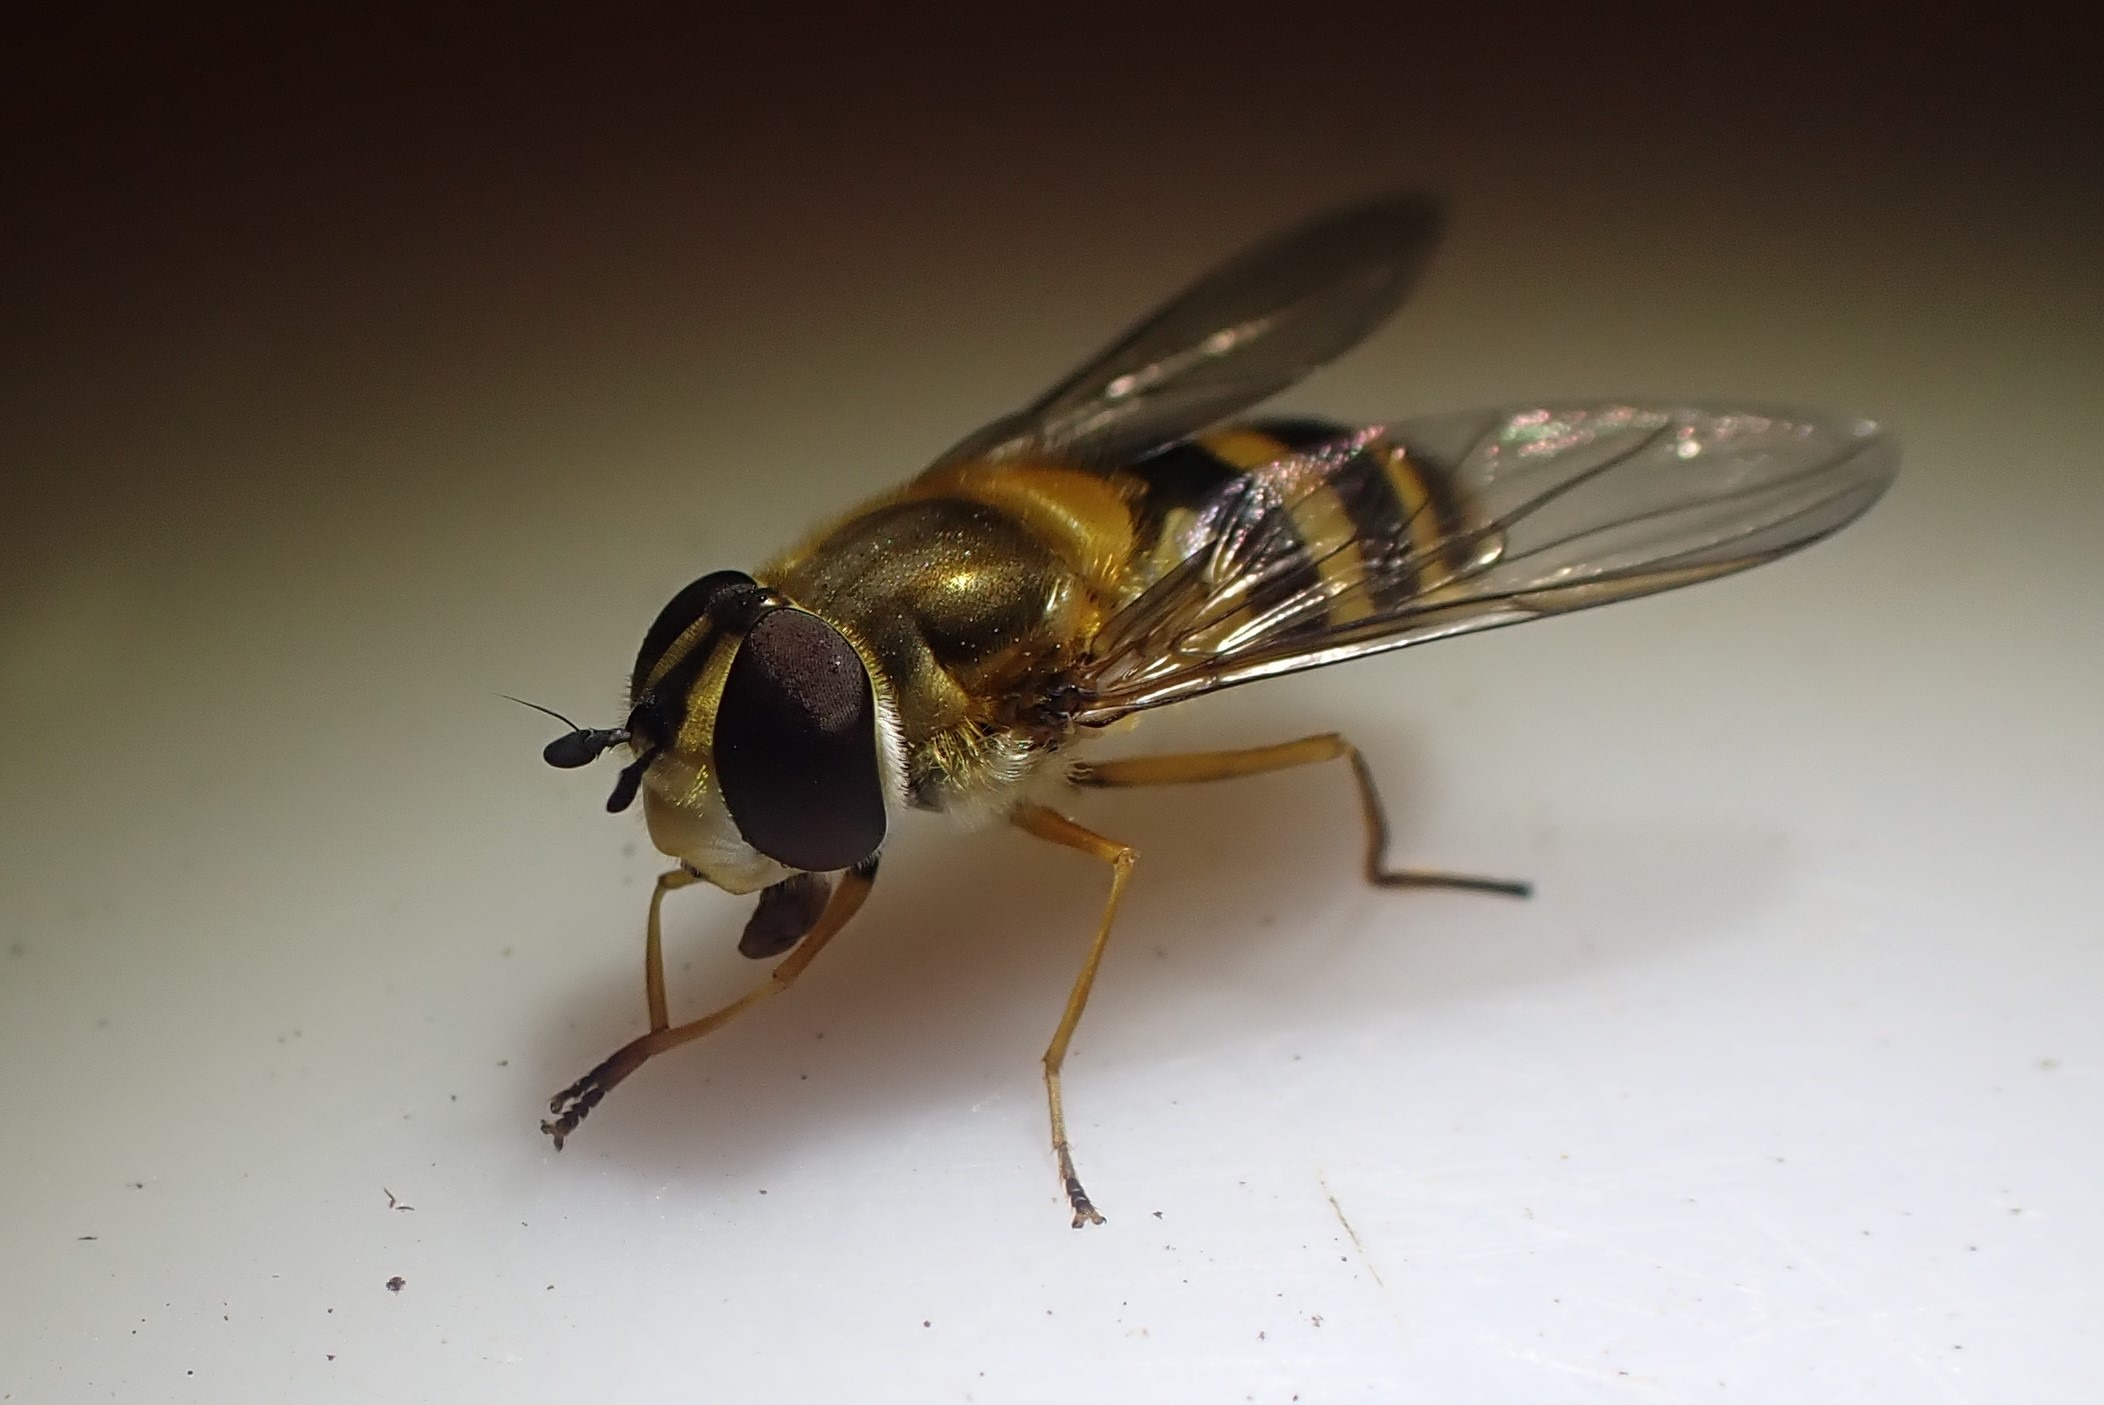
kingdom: Animalia
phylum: Arthropoda
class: Insecta
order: Diptera
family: Syrphidae
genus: Epistrophe
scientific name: Epistrophe grossulariae
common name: Stikkelsbær-glanssvirreflue
